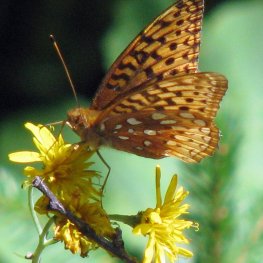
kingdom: Animalia
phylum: Arthropoda
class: Insecta
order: Lepidoptera
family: Nymphalidae
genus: Speyeria
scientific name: Speyeria cybele
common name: Great Spangled Fritillary
